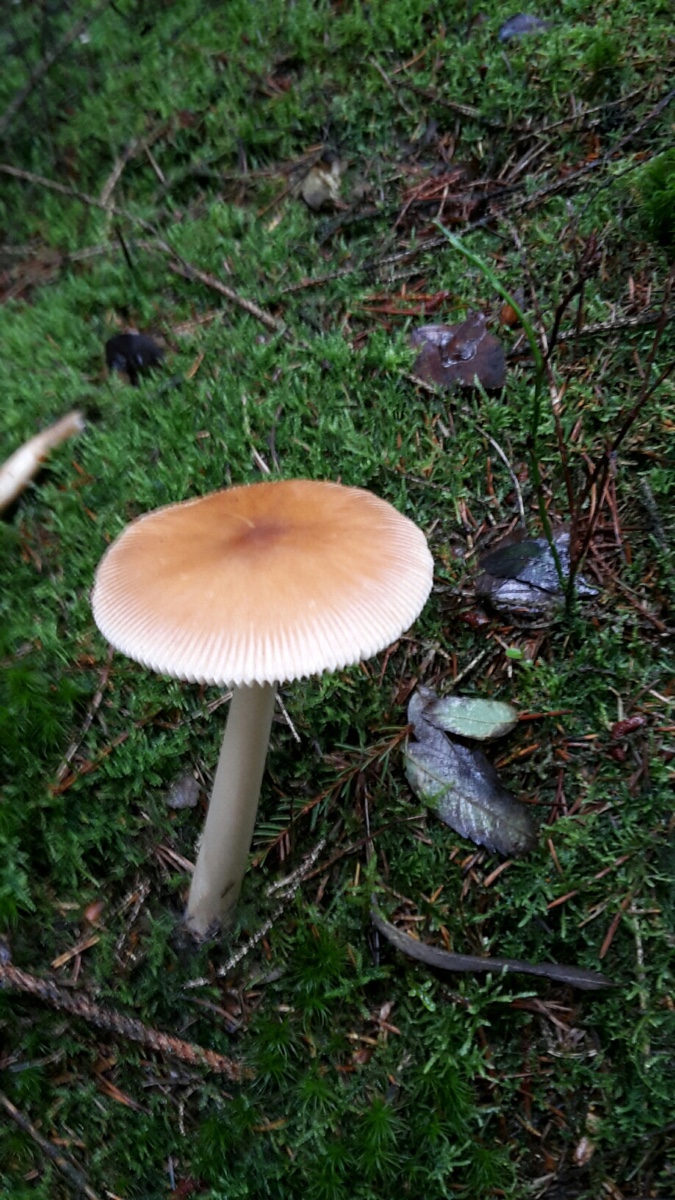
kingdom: Fungi
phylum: Basidiomycota
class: Agaricomycetes
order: Agaricales
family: Amanitaceae
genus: Amanita
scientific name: Amanita fulva
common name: brun kam-fluesvamp
